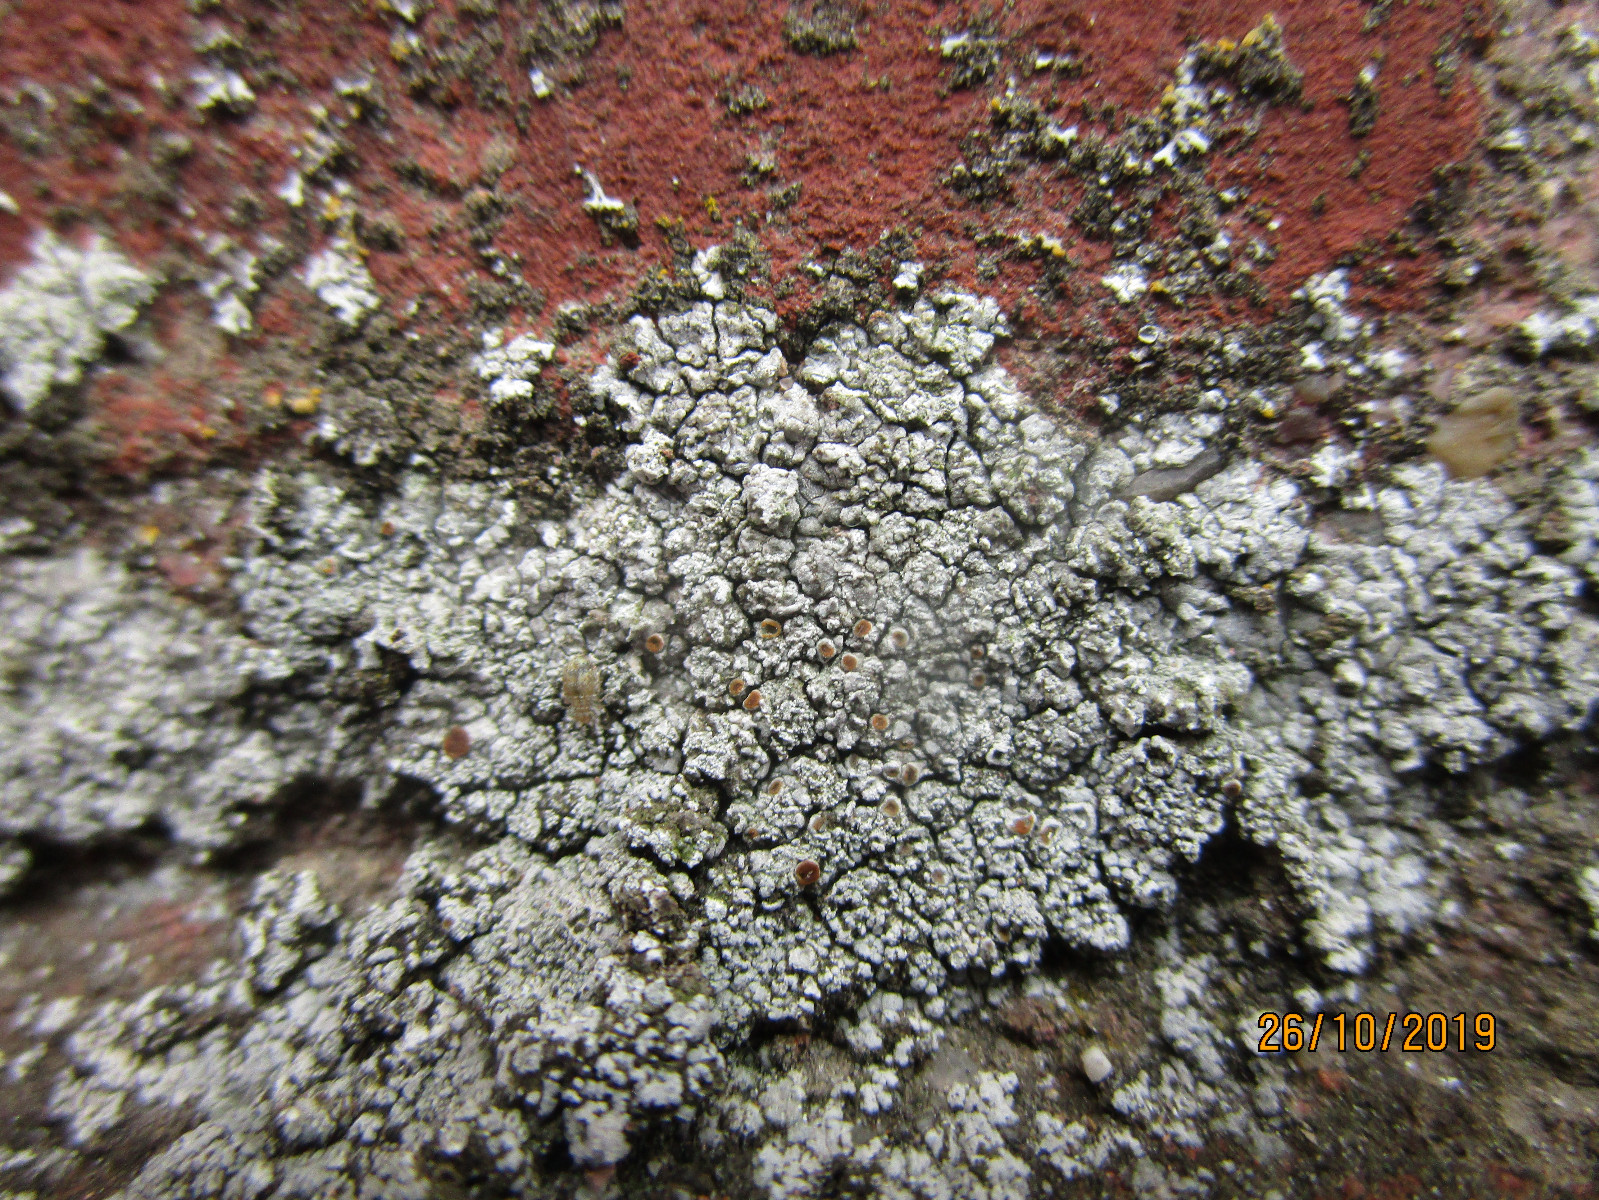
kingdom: Fungi
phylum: Ascomycota
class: Lecanoromycetes
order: Lecanorales
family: Lecanoraceae
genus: Polyozosia
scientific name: Polyozosia albescens
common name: cement-kantskivelav
